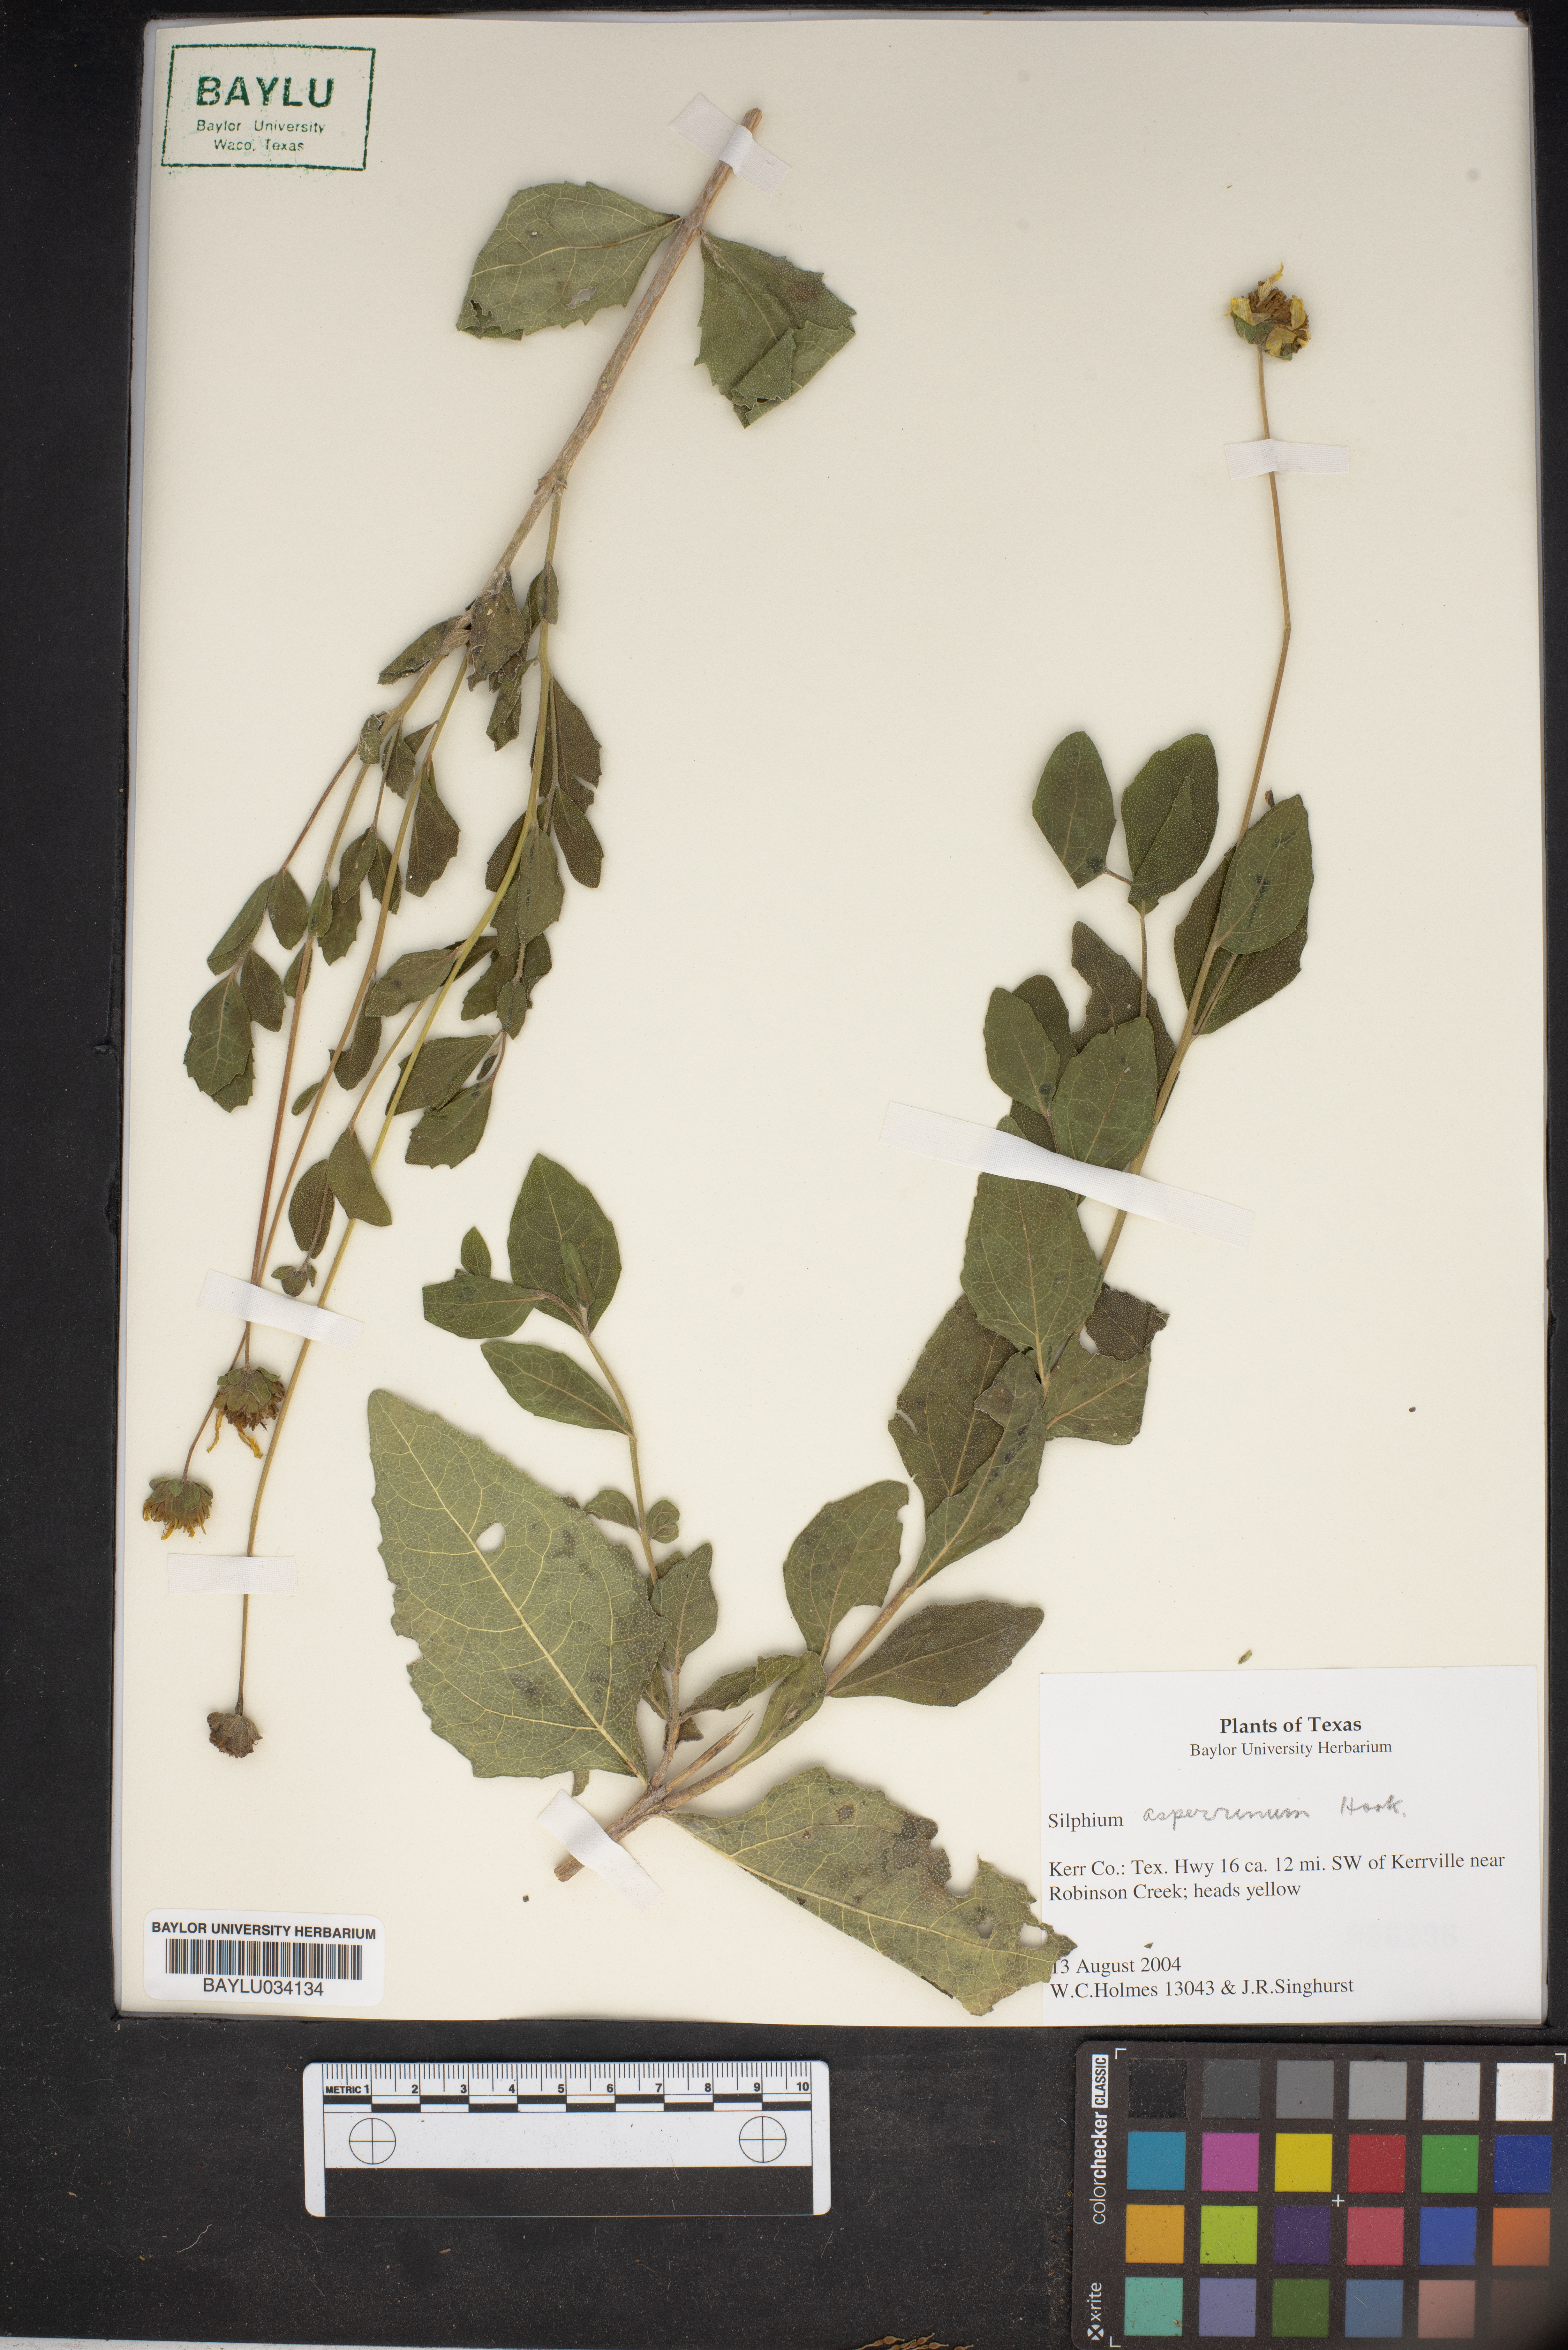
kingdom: Plantae
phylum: Tracheophyta
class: Magnoliopsida
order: Asterales
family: Asteraceae
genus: Silphium
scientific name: Silphium asperrimum
